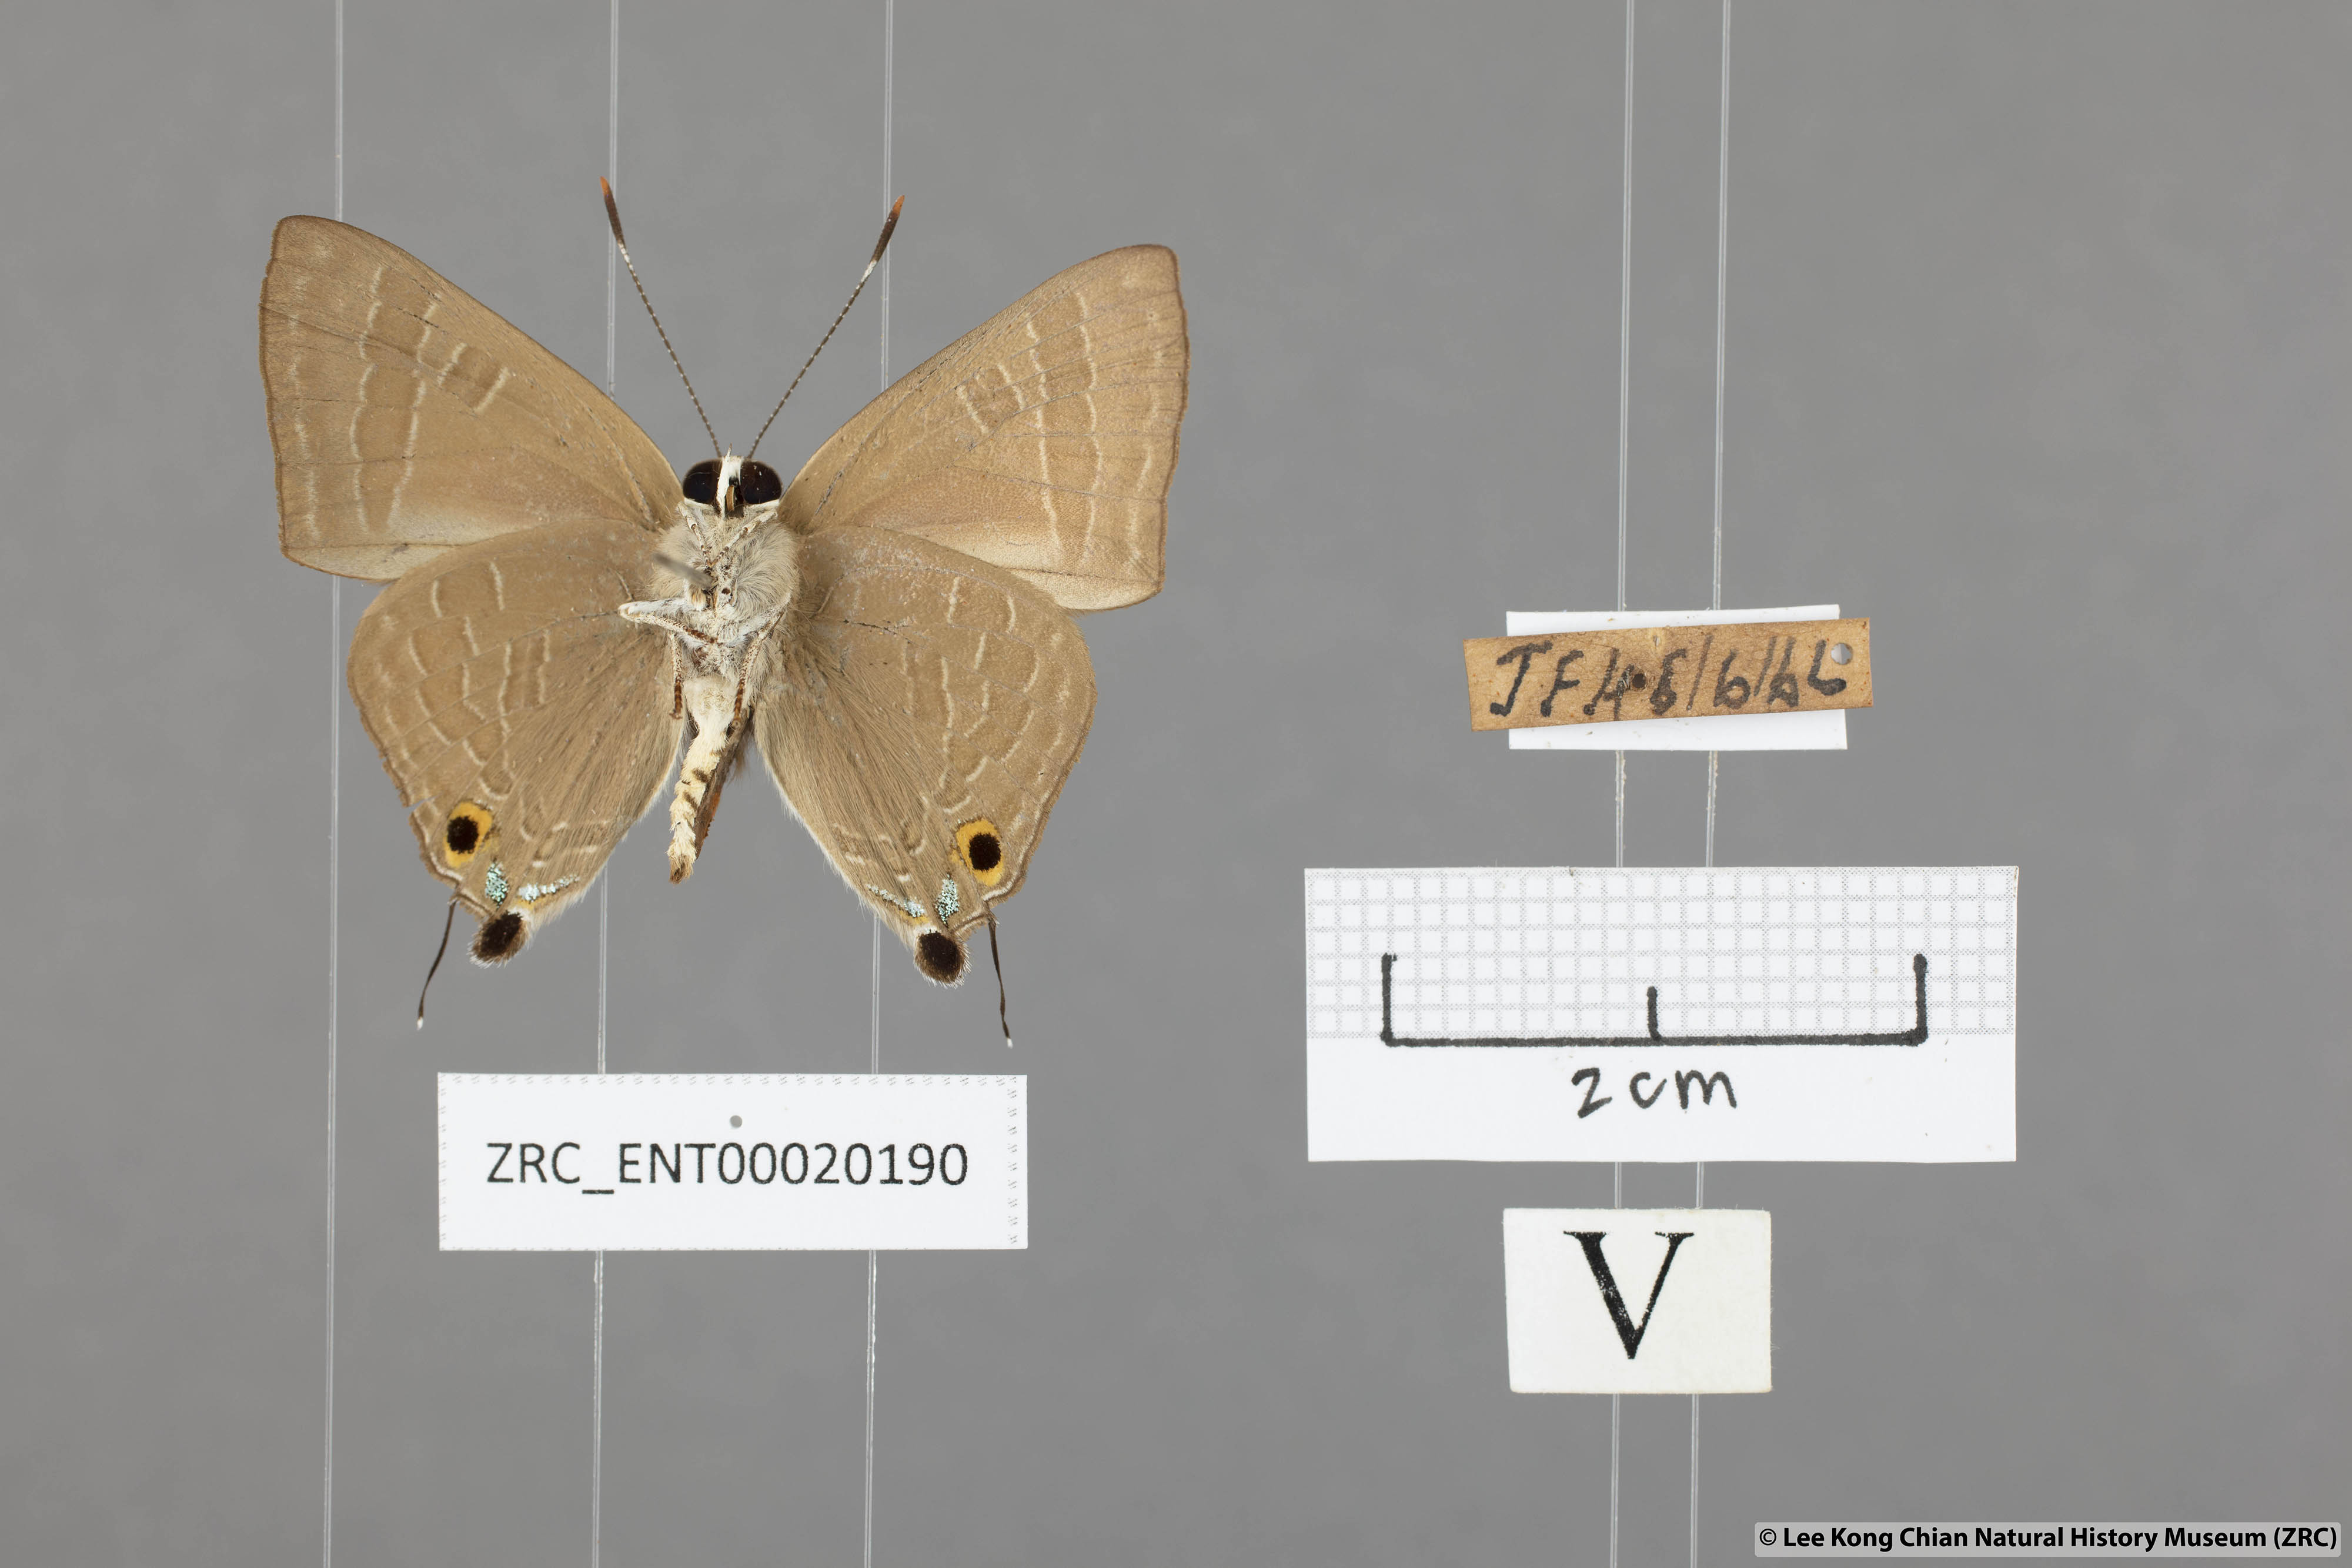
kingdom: Animalia
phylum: Arthropoda
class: Insecta
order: Lepidoptera
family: Lycaenidae
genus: Deudorix
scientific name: Deudorix epijarbas
